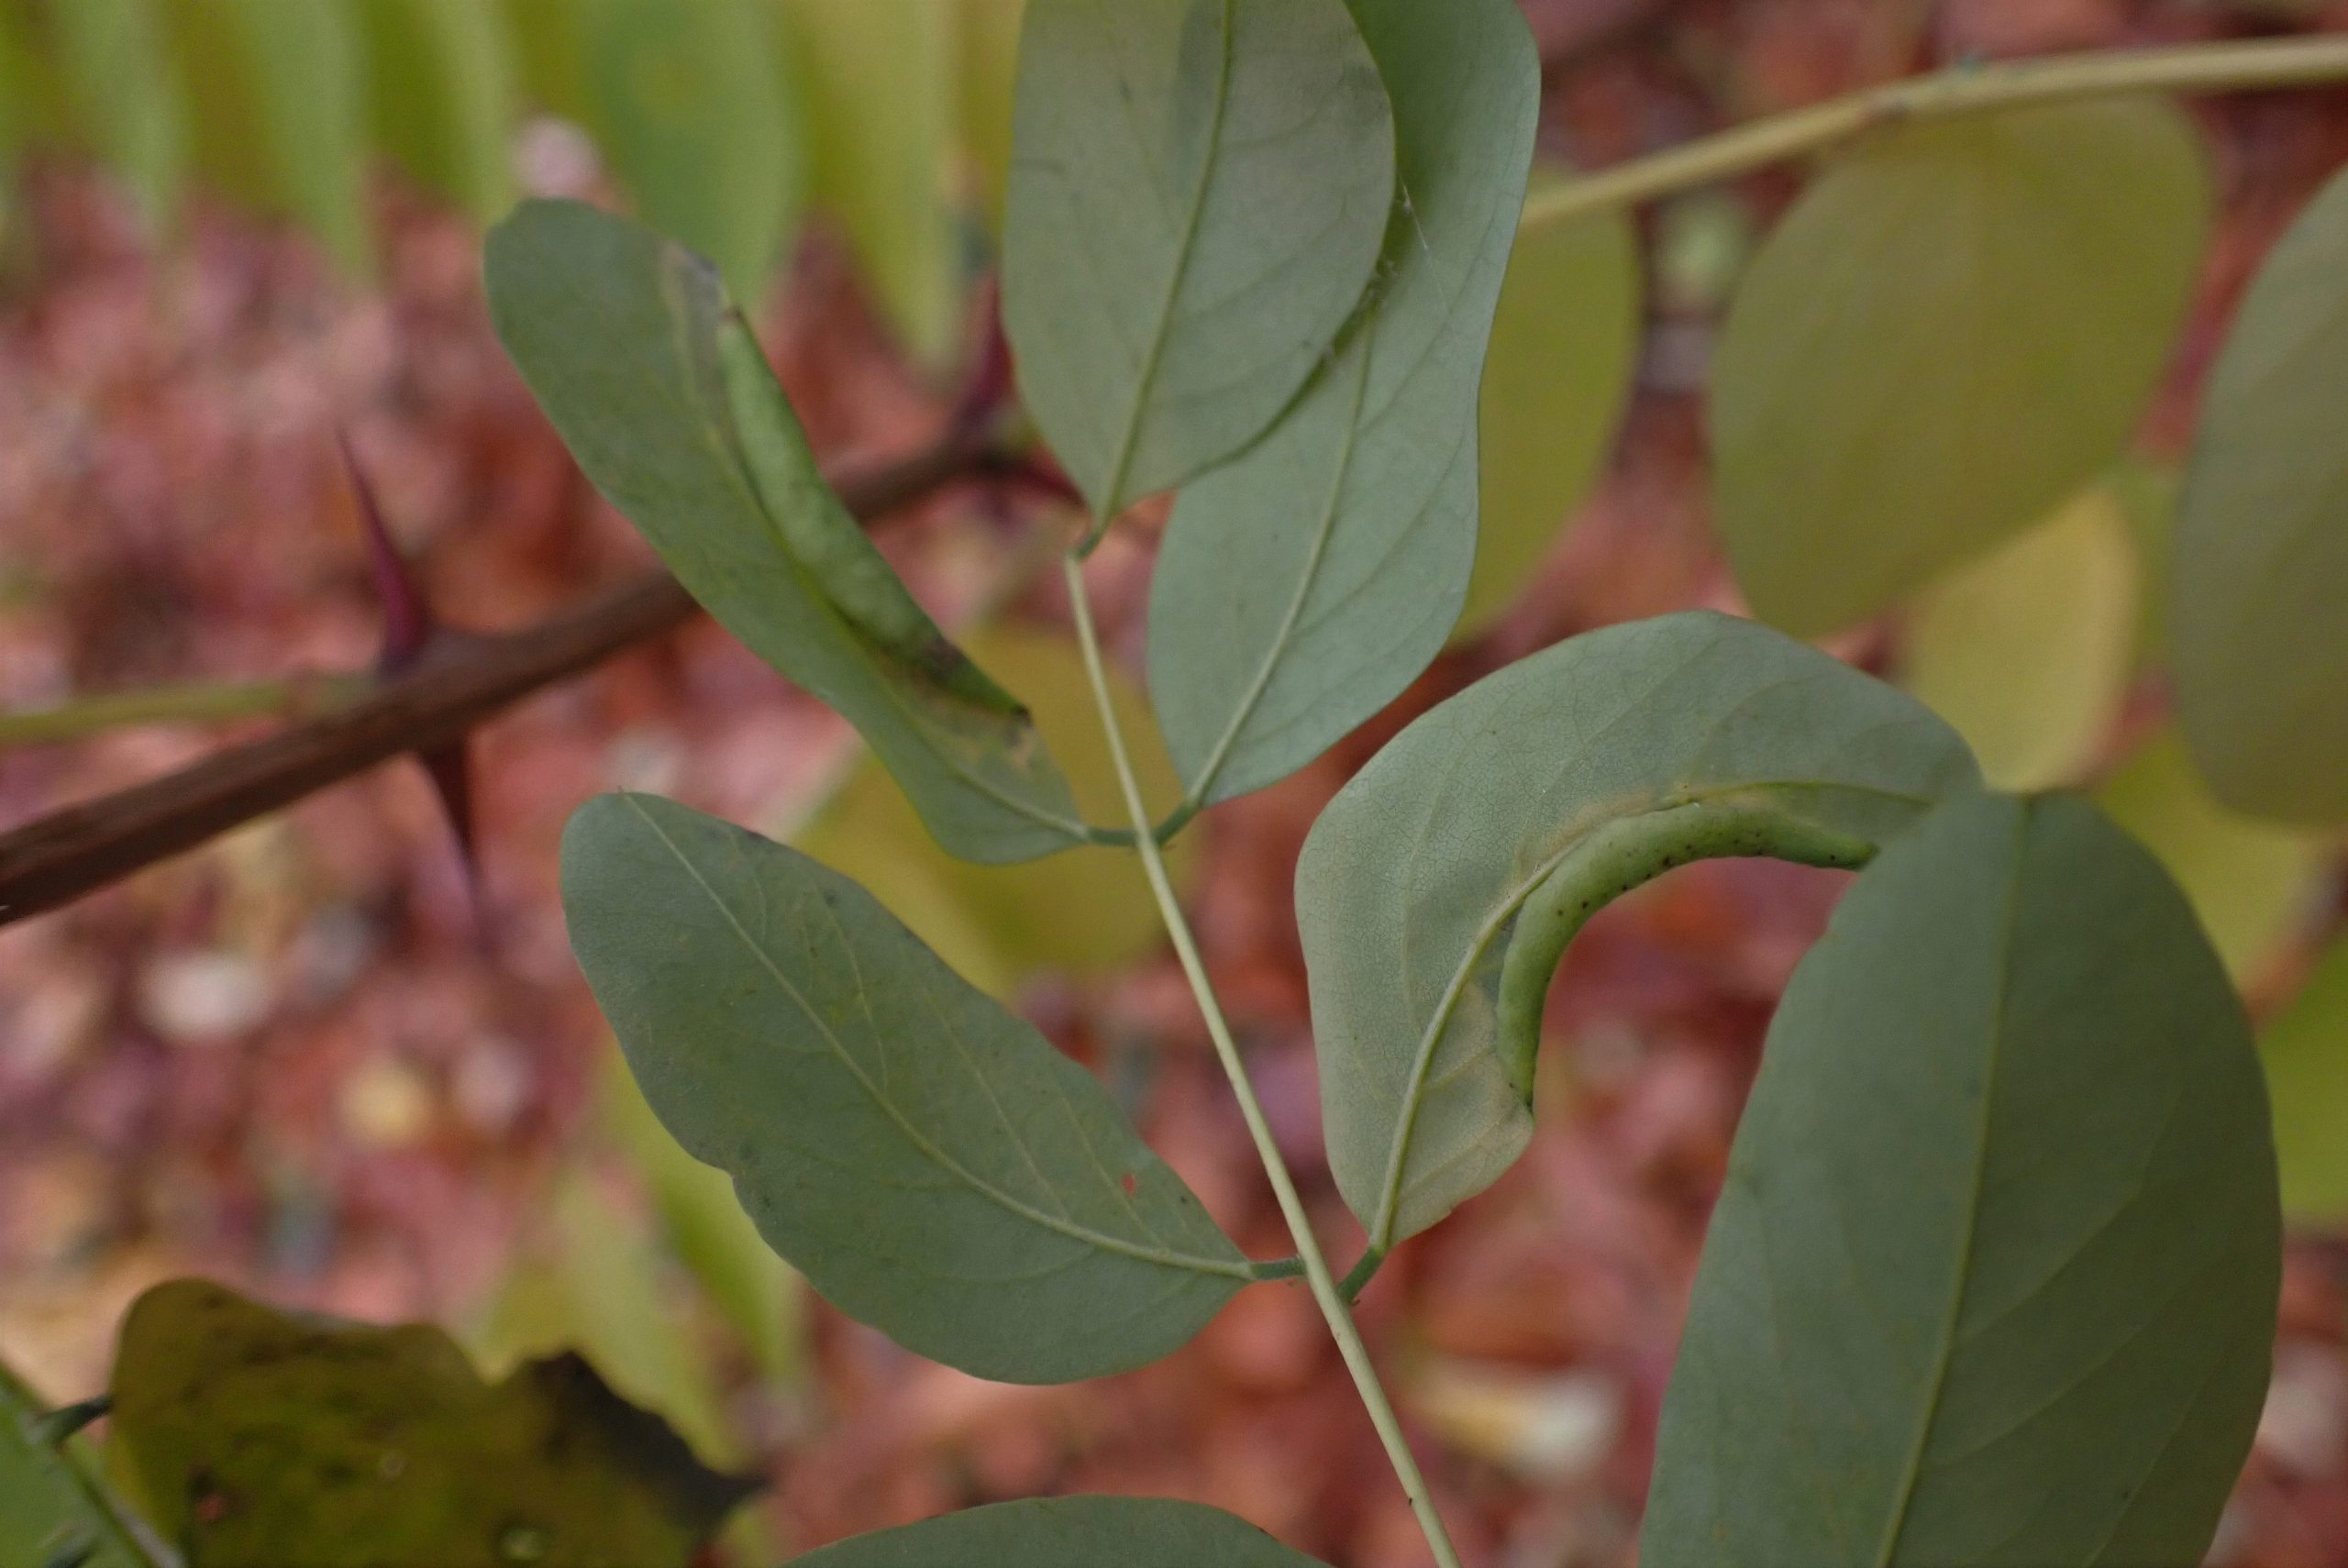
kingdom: Animalia
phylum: Arthropoda
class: Insecta
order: Diptera
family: Cecidomyiidae
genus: Obolodiplosis
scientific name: Obolodiplosis robiniae
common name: Robiniegalmyg
